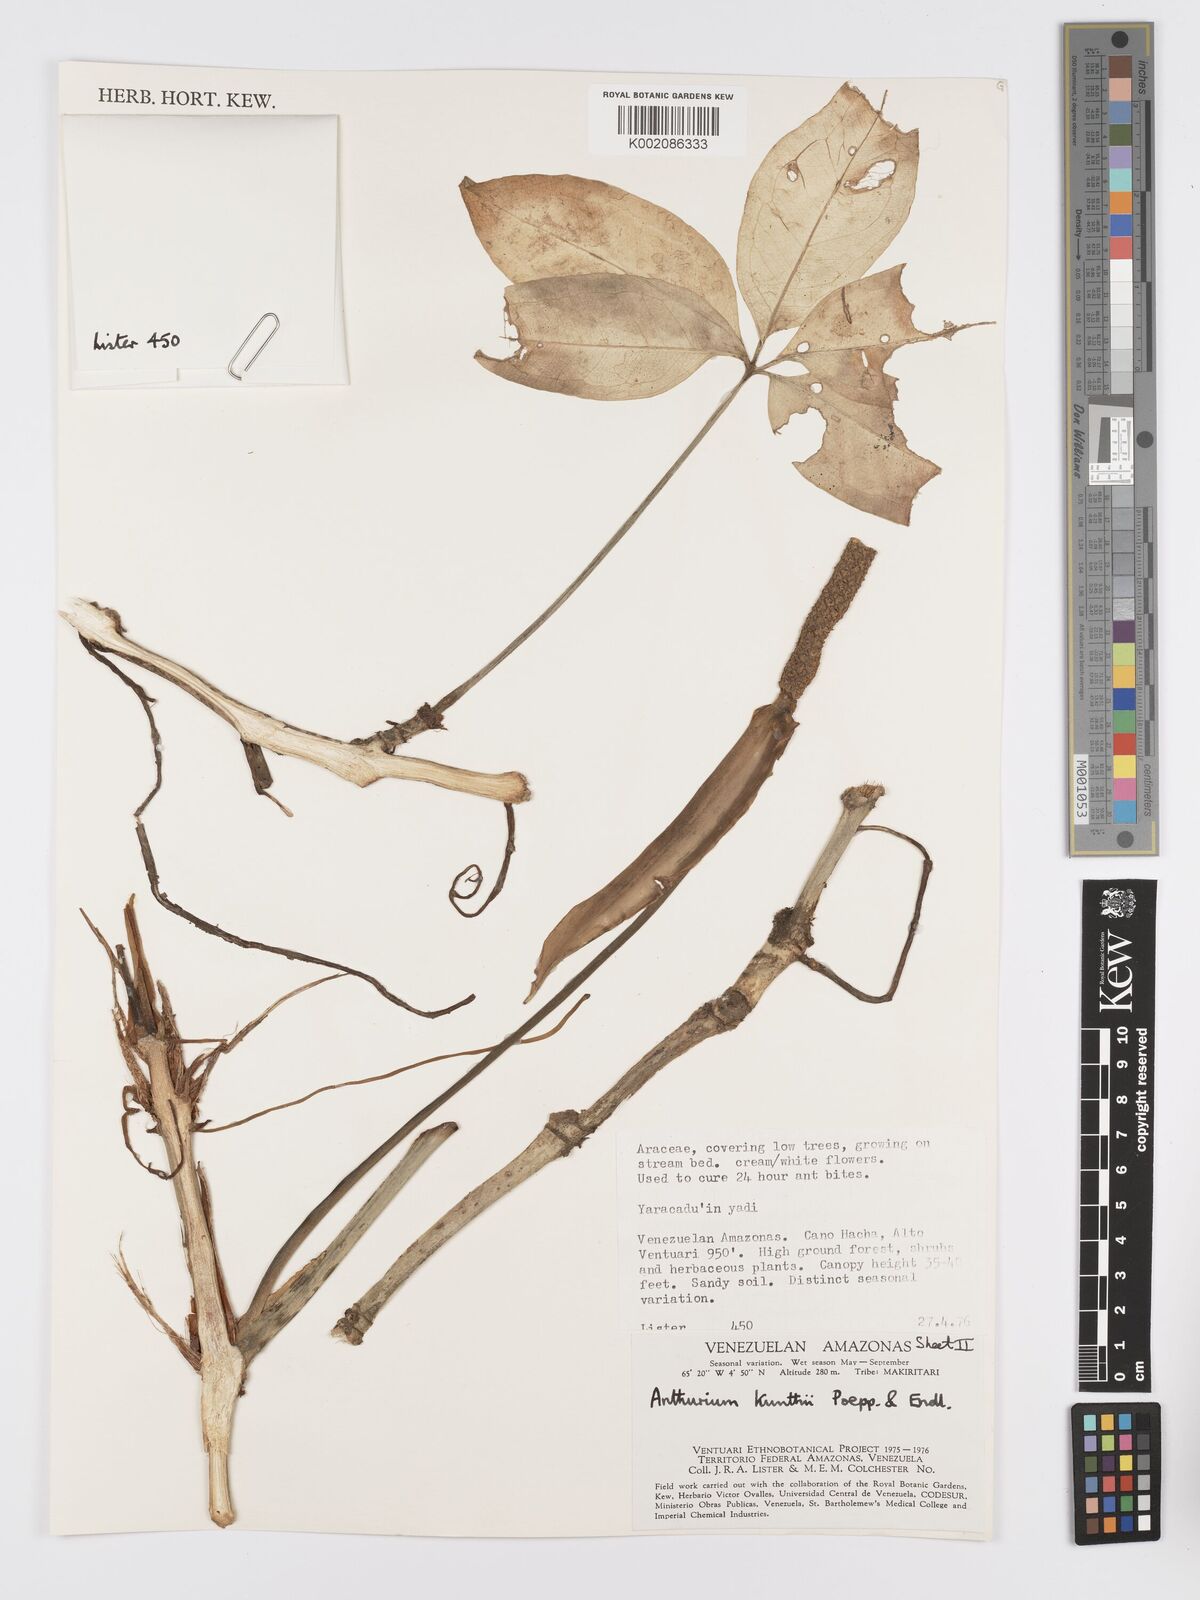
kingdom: Plantae
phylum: Tracheophyta
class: Liliopsida
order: Alismatales
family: Araceae
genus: Anthurium
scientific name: Anthurium kunthii
